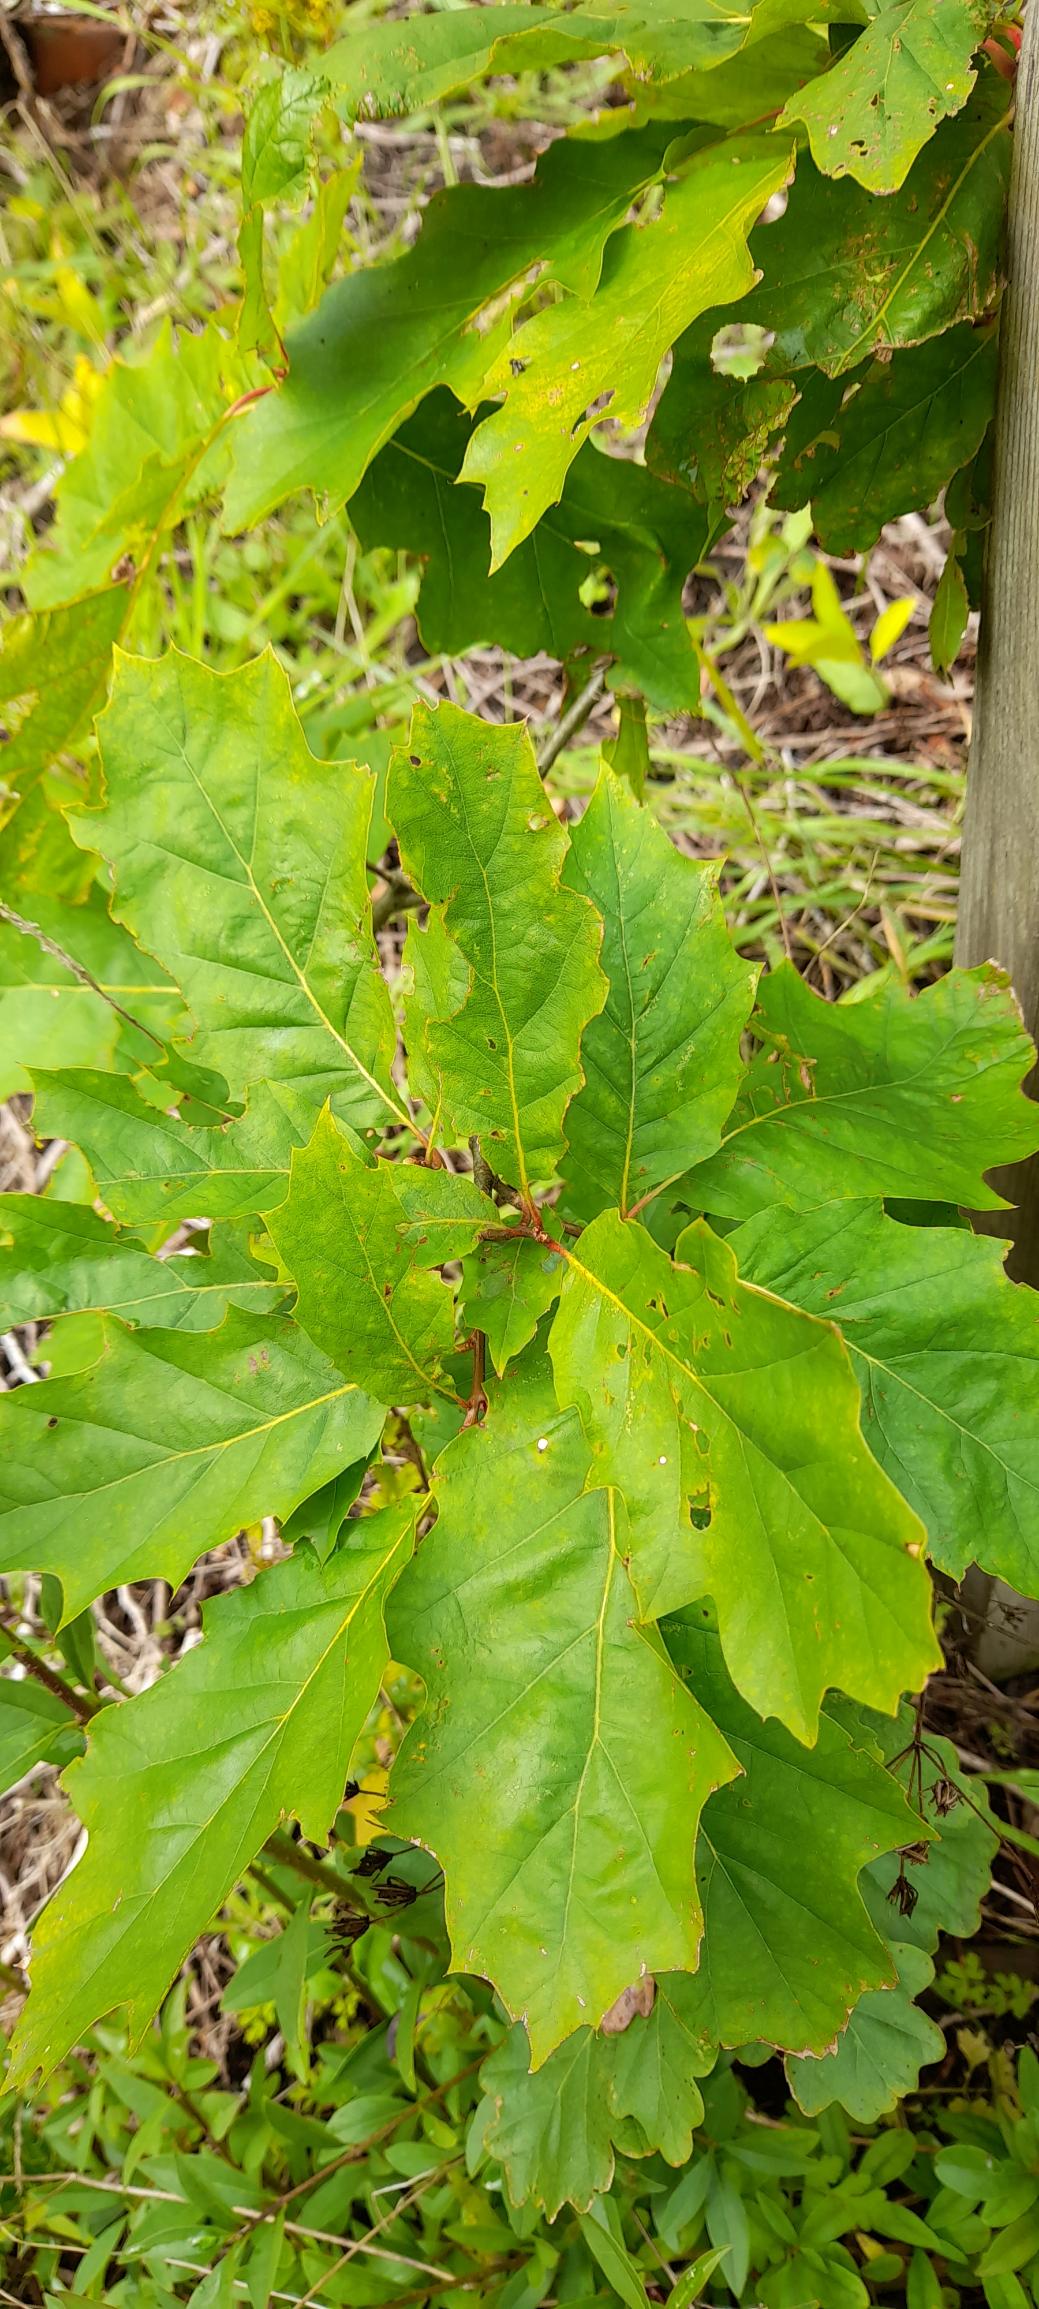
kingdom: Plantae
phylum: Tracheophyta
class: Magnoliopsida
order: Fagales
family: Fagaceae
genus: Quercus
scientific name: Quercus rubra
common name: Rød-eg
